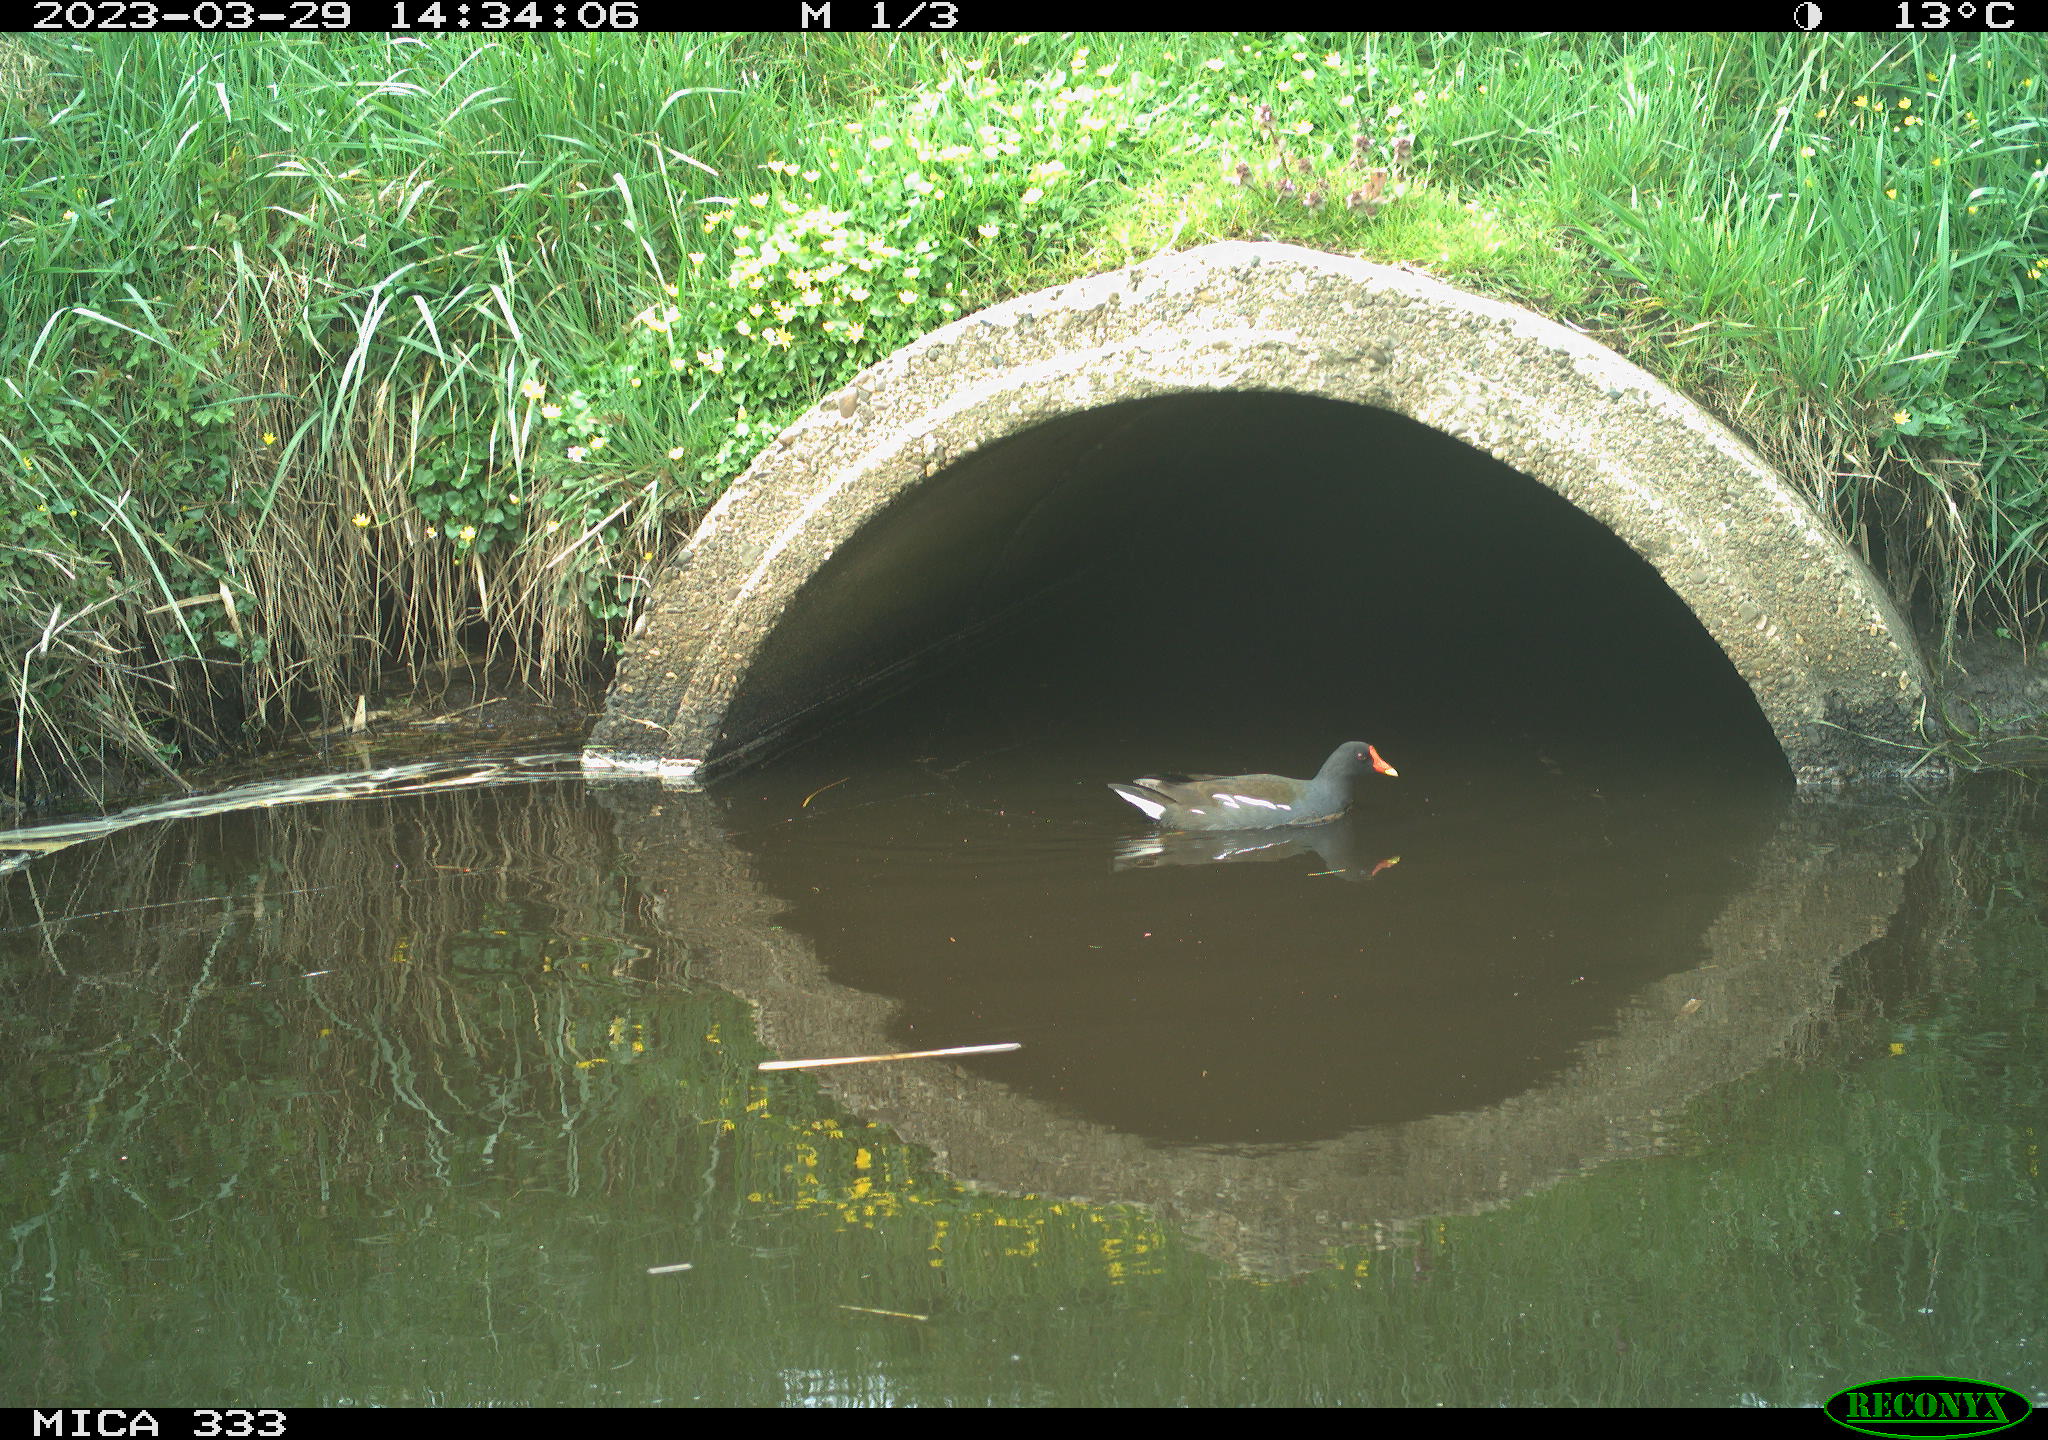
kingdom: Animalia
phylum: Chordata
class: Aves
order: Gruiformes
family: Rallidae
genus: Gallinula
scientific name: Gallinula chloropus
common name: Common moorhen
